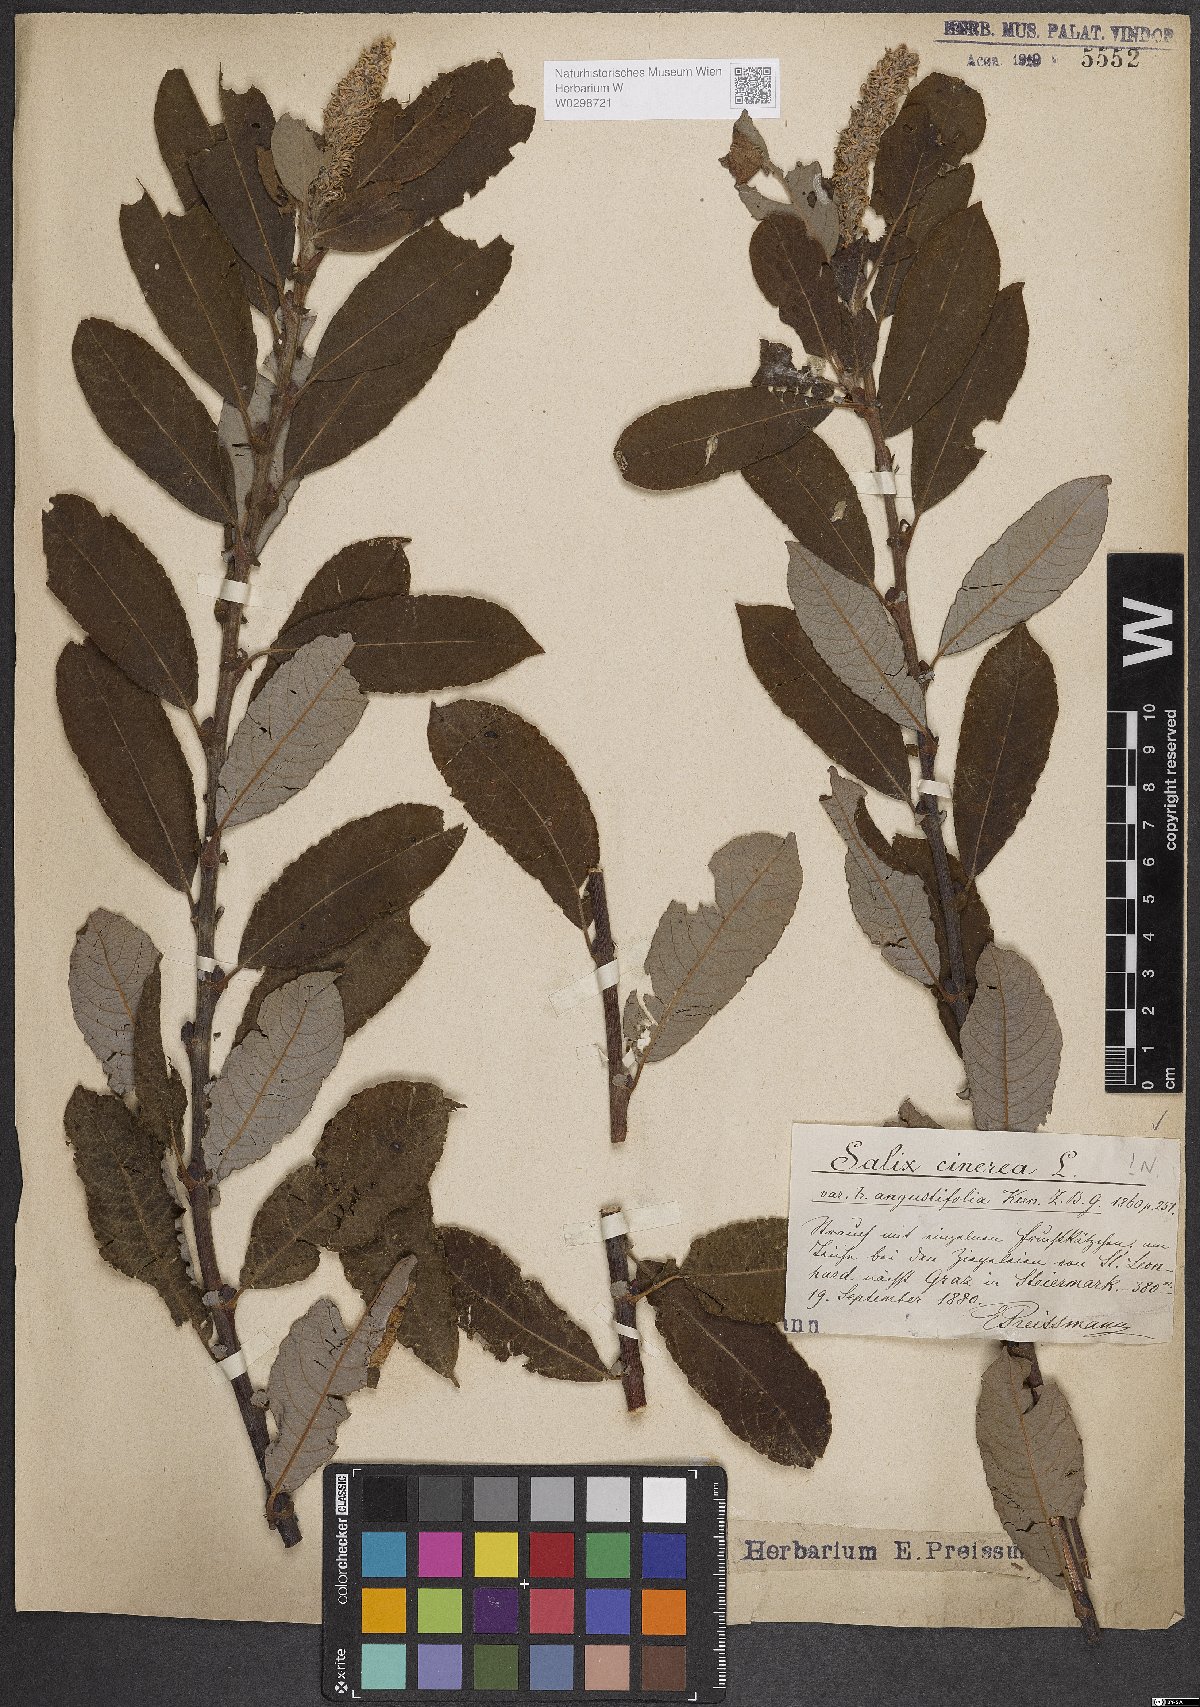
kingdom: Plantae
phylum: Tracheophyta
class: Magnoliopsida
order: Malpighiales
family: Salicaceae
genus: Salix
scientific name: Salix cinerea
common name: Common sallow
